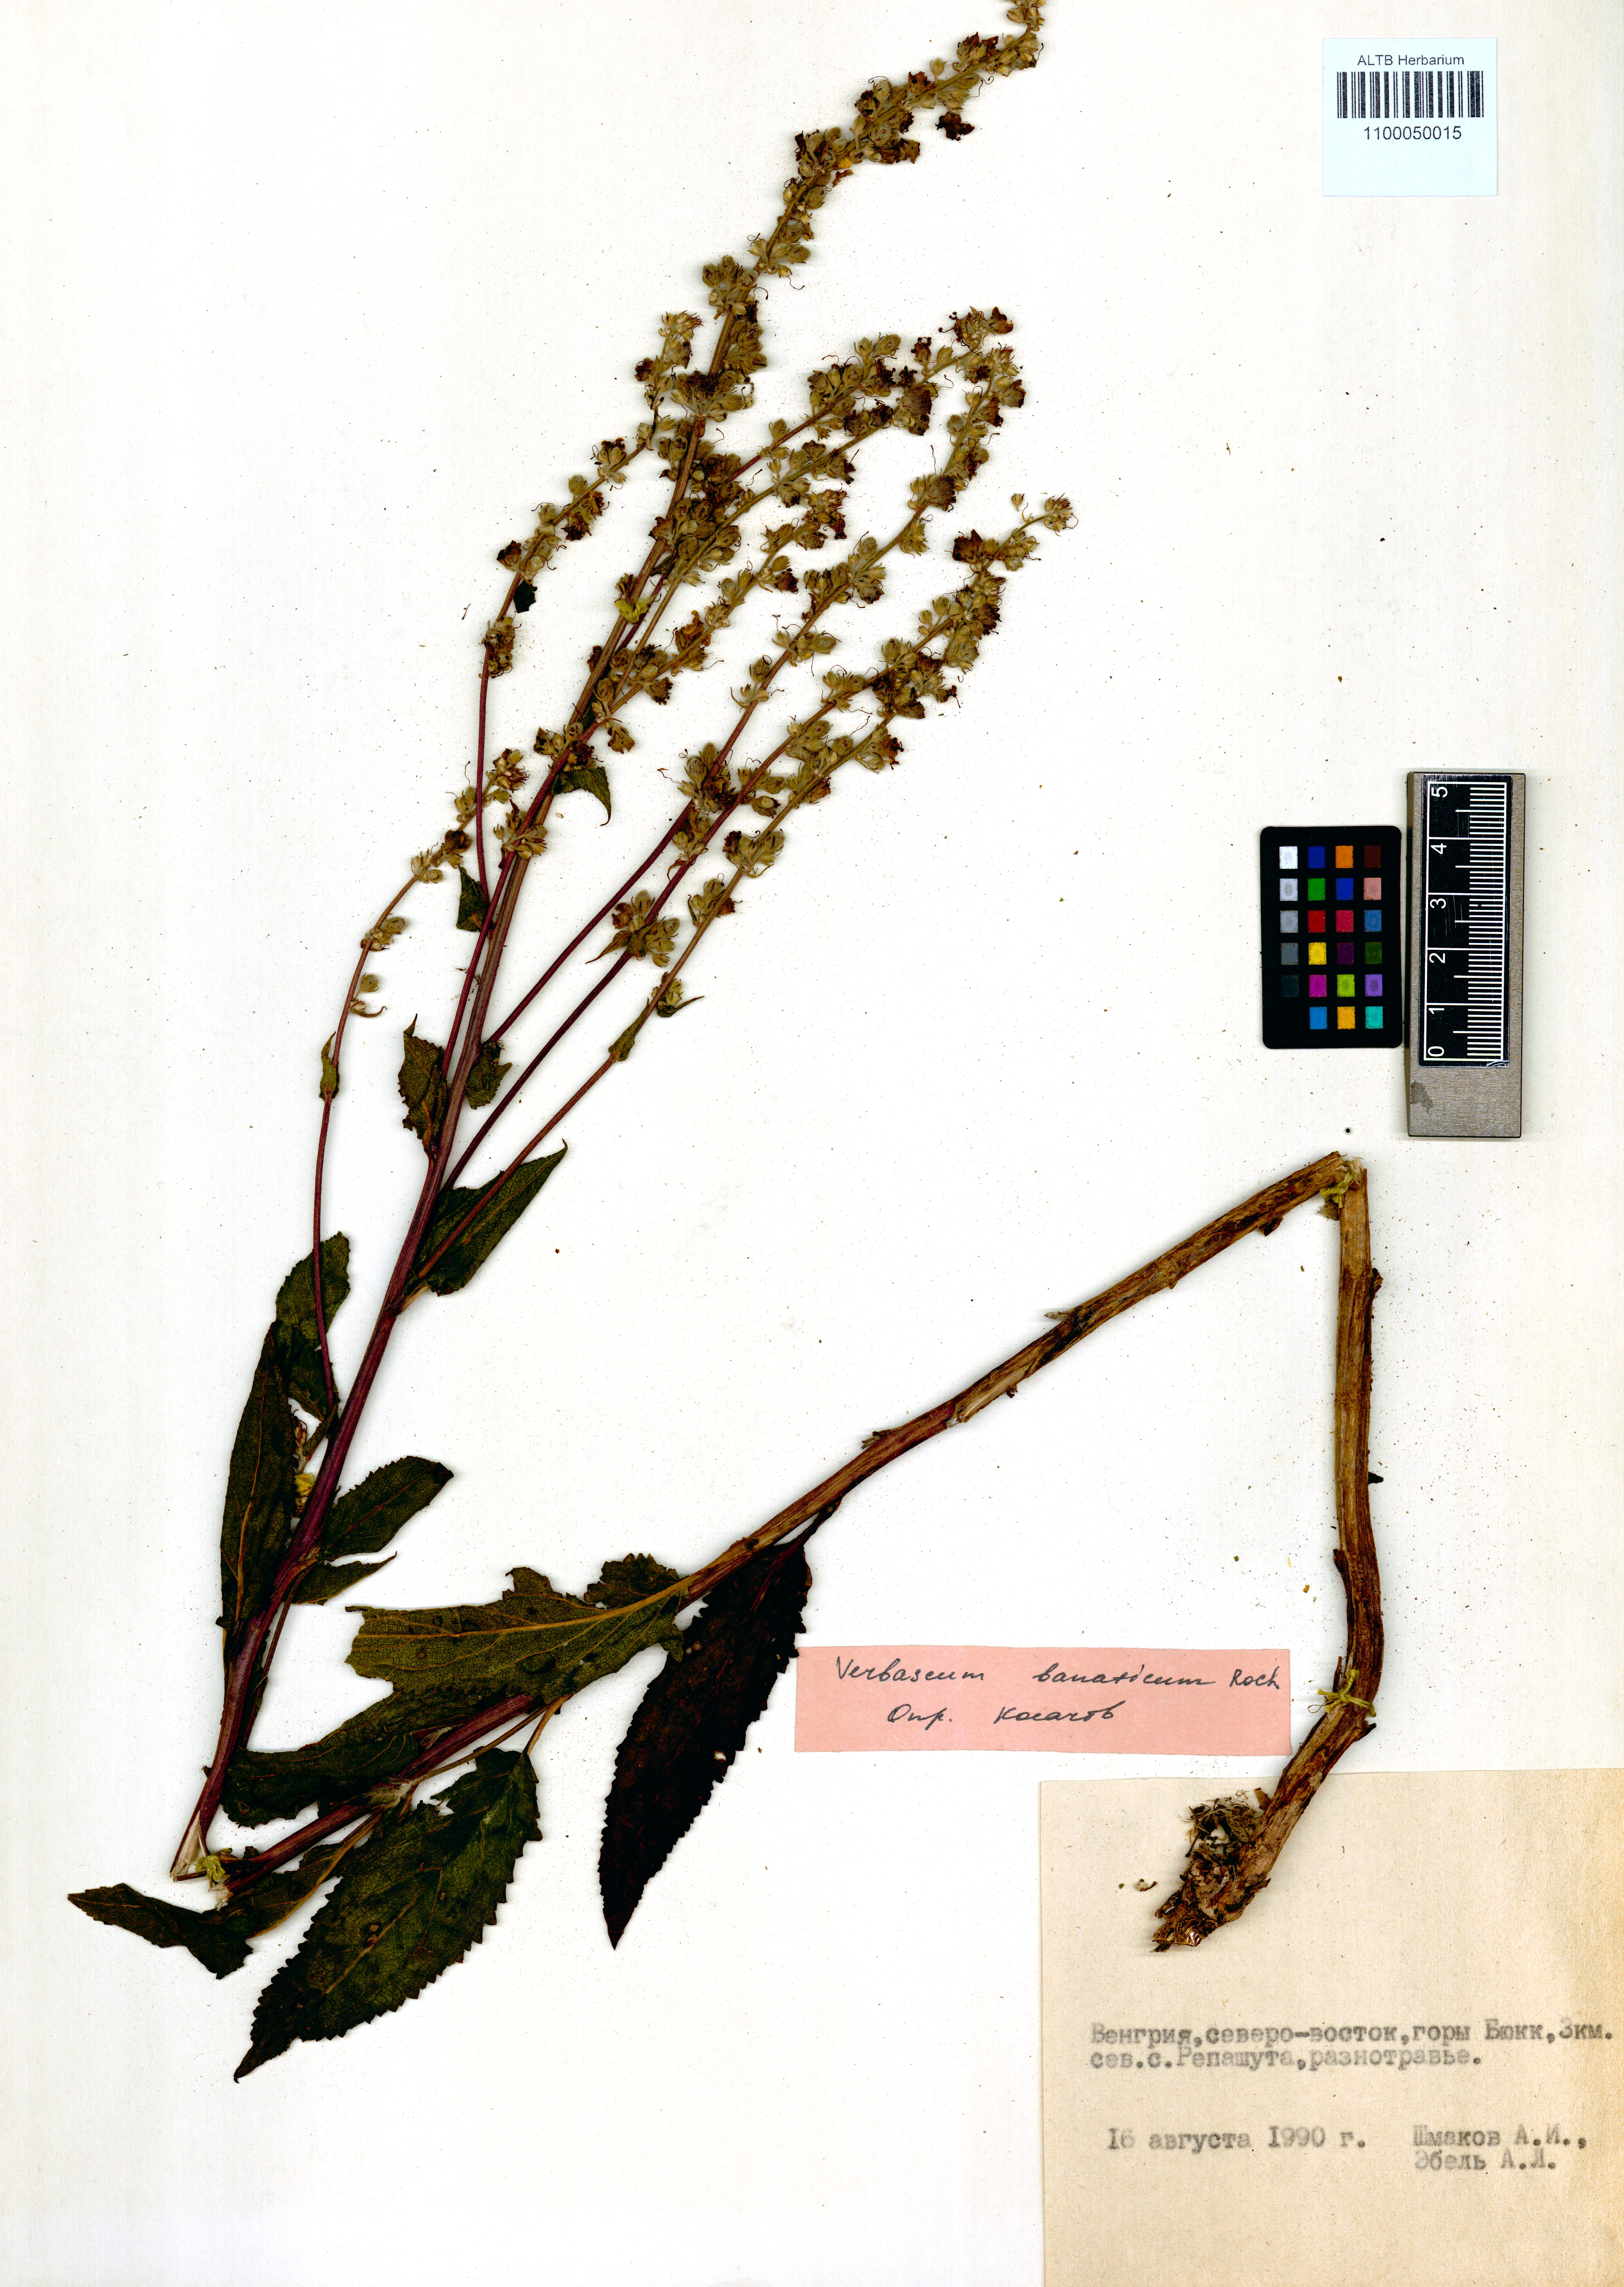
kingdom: Plantae
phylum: Tracheophyta
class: Magnoliopsida
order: Lamiales
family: Scrophulariaceae
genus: Verbascum
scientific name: Verbascum banaticum
